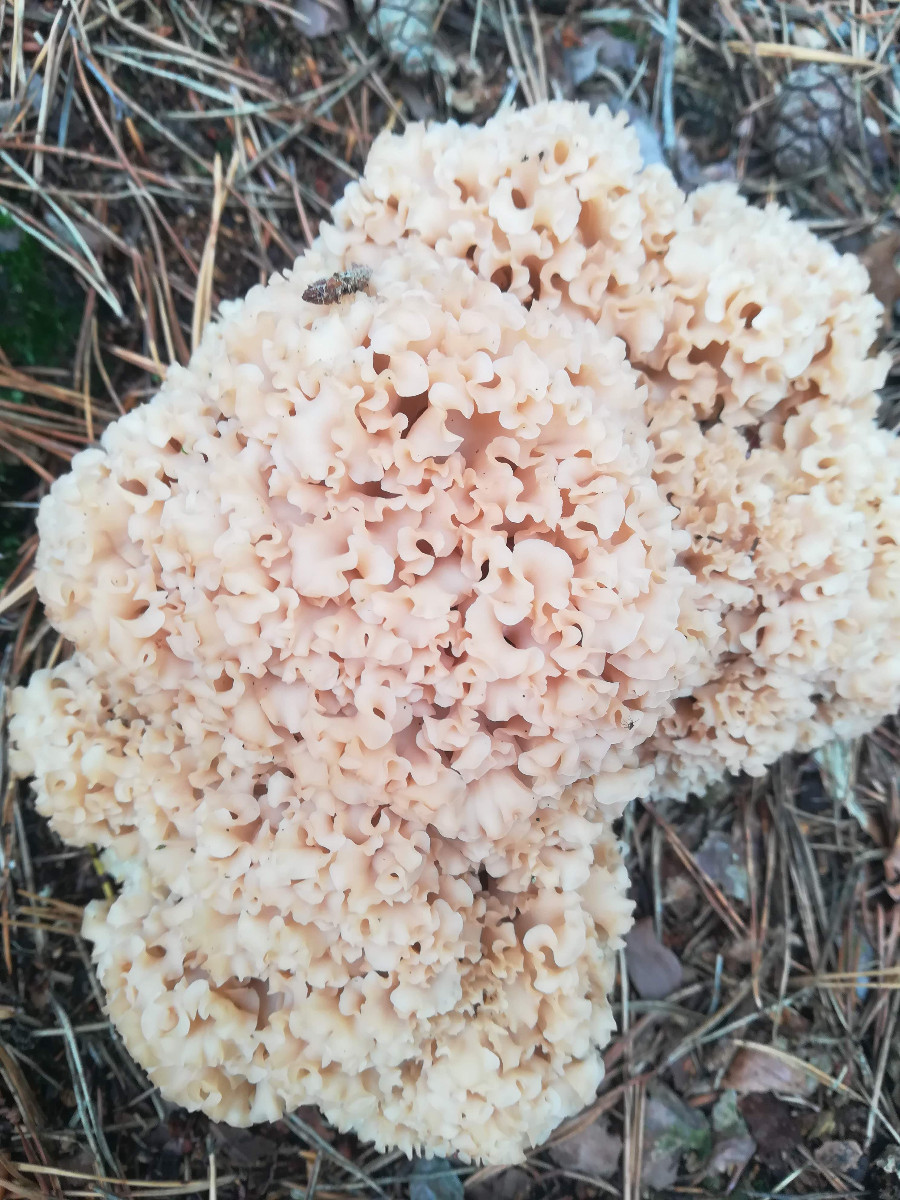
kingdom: Fungi
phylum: Basidiomycota
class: Agaricomycetes
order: Polyporales
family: Sparassidaceae
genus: Sparassis
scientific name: Sparassis crispa
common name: kruset blomkålssvamp
